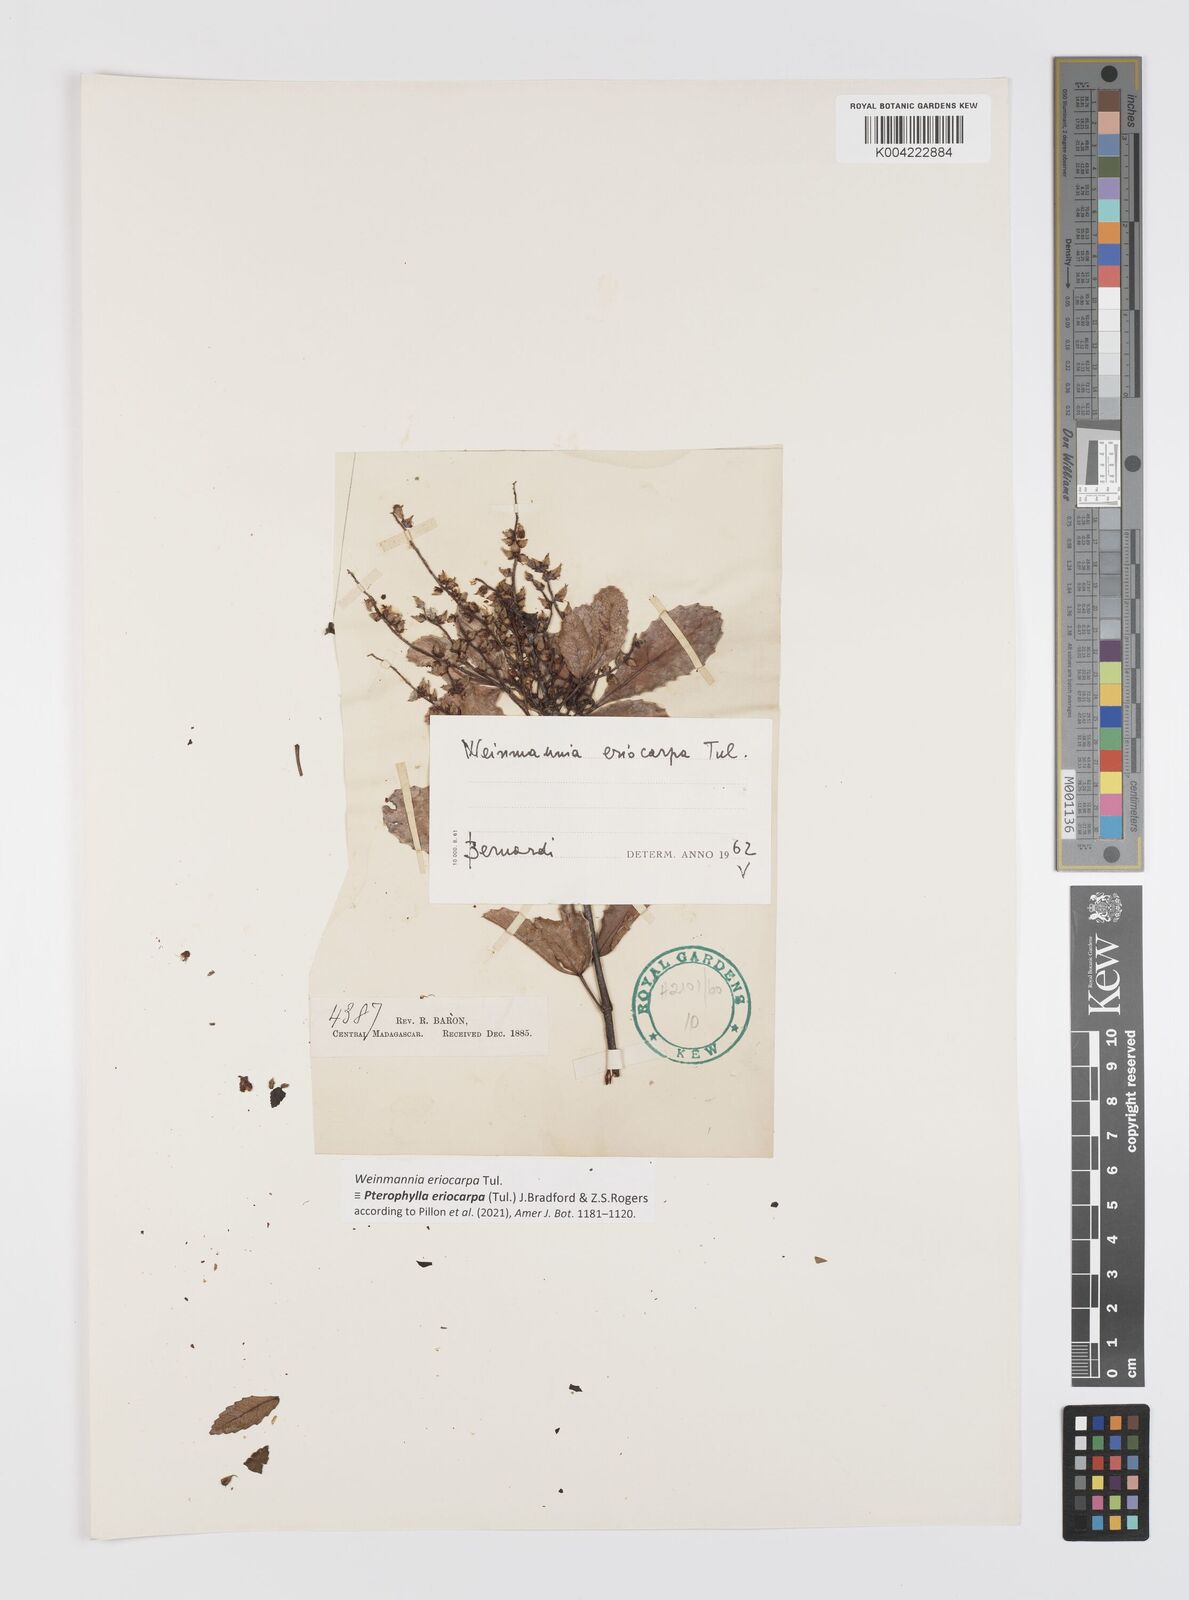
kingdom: Plantae
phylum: Tracheophyta
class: Magnoliopsida
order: Oxalidales
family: Cunoniaceae
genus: Pterophylla
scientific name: Pterophylla eriocarpa
